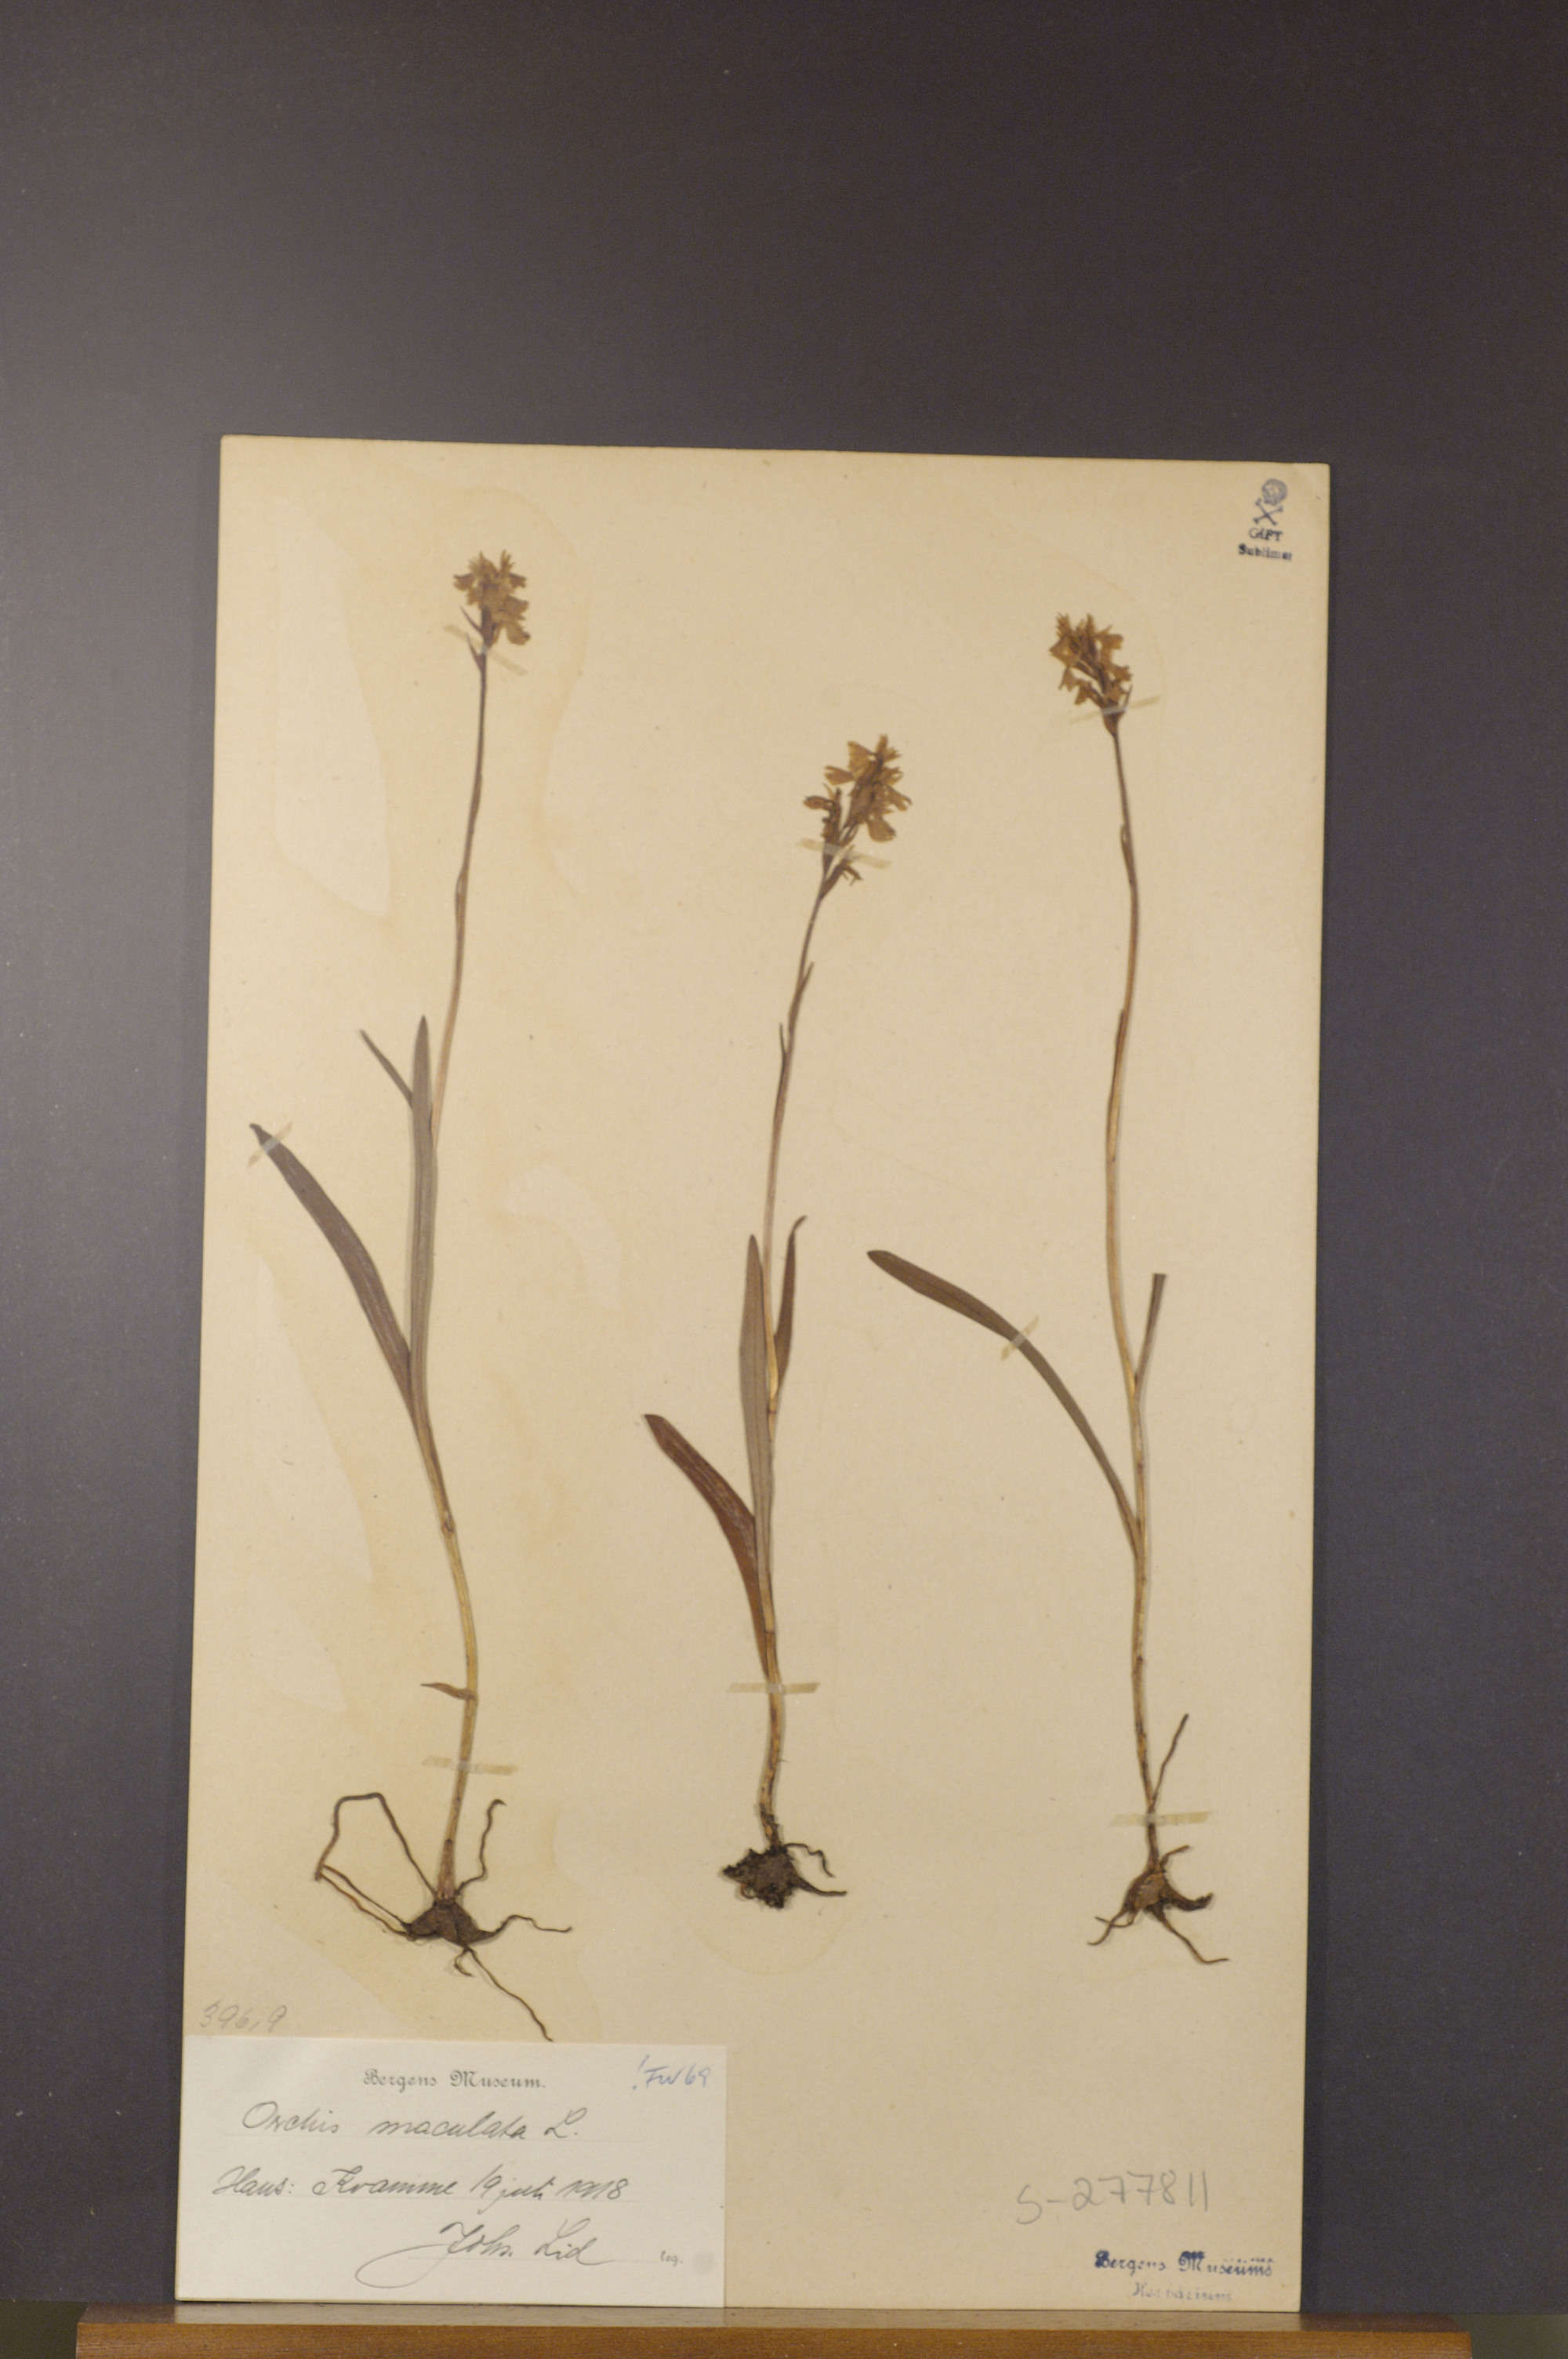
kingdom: Plantae
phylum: Tracheophyta
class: Liliopsida
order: Asparagales
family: Orchidaceae
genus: Dactylorhiza
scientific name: Dactylorhiza maculata
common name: Heath spotted-orchid
